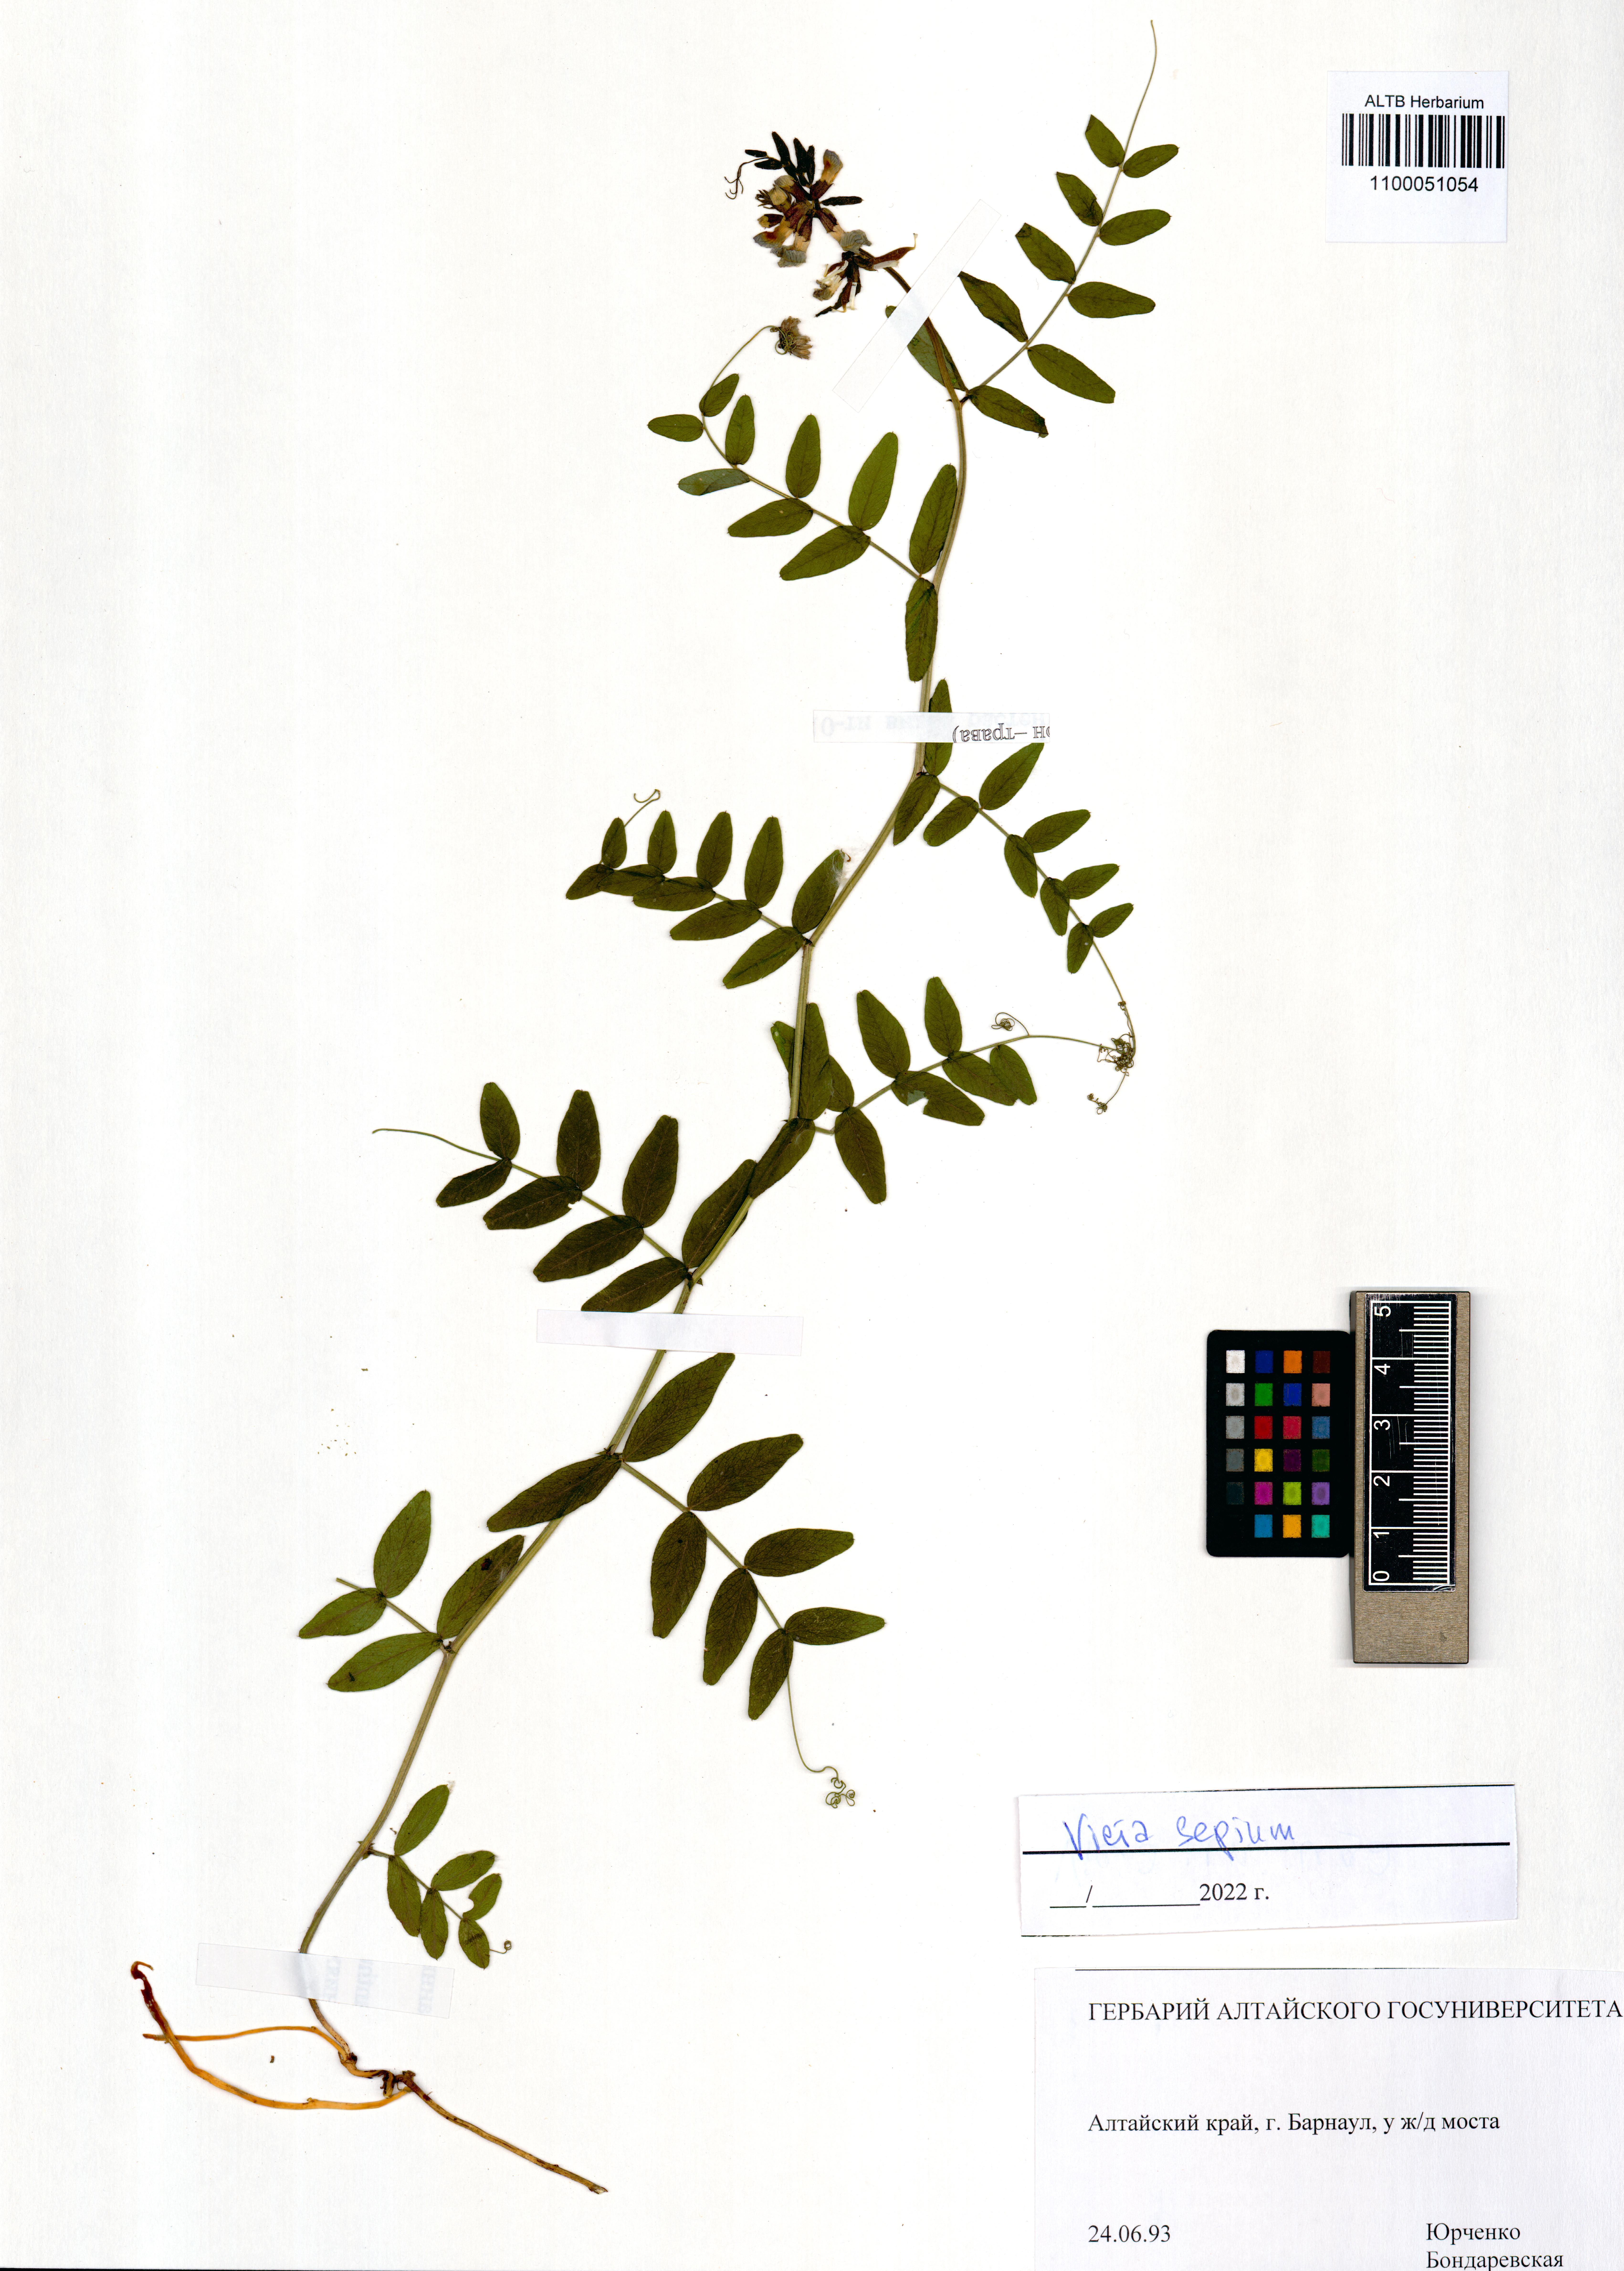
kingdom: Plantae
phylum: Tracheophyta
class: Magnoliopsida
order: Fabales
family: Fabaceae
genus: Vicia
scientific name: Vicia sepium
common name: Bush vetch
